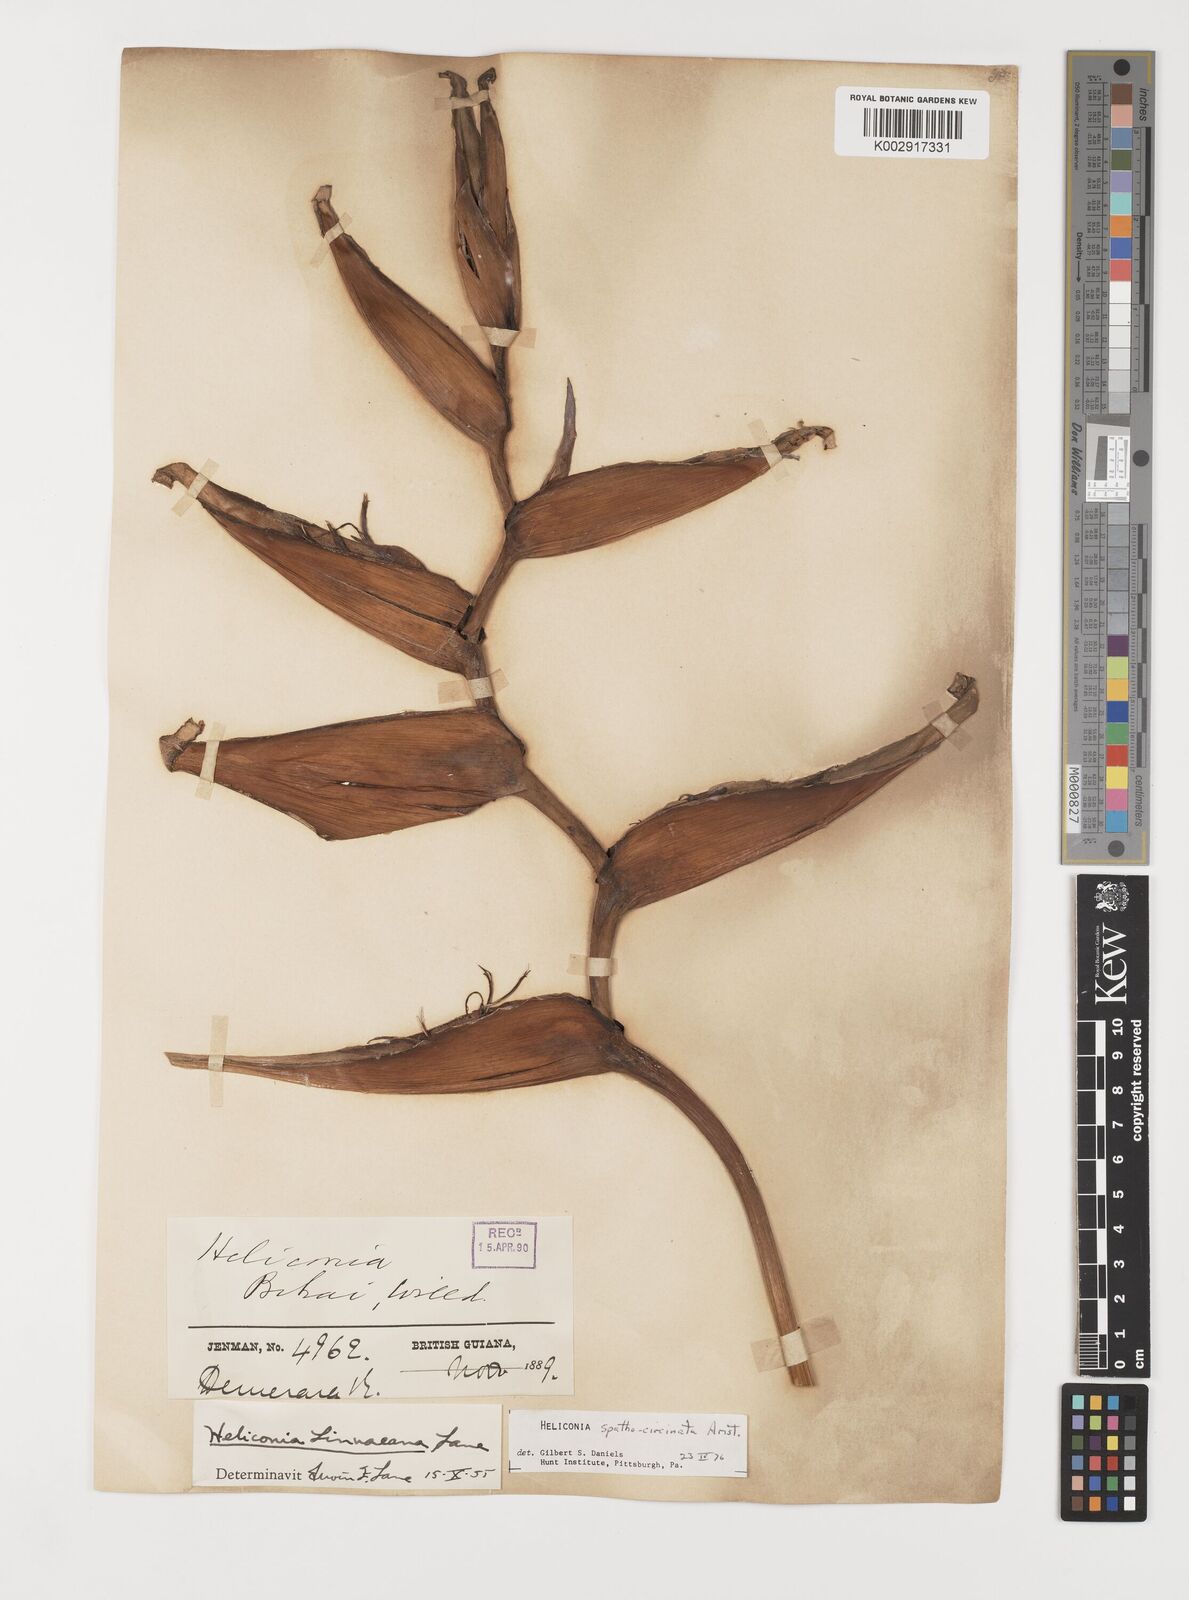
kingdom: Plantae
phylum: Tracheophyta
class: Liliopsida
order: Zingiberales
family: Heliconiaceae
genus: Heliconia
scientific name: Heliconia spathocircinata
